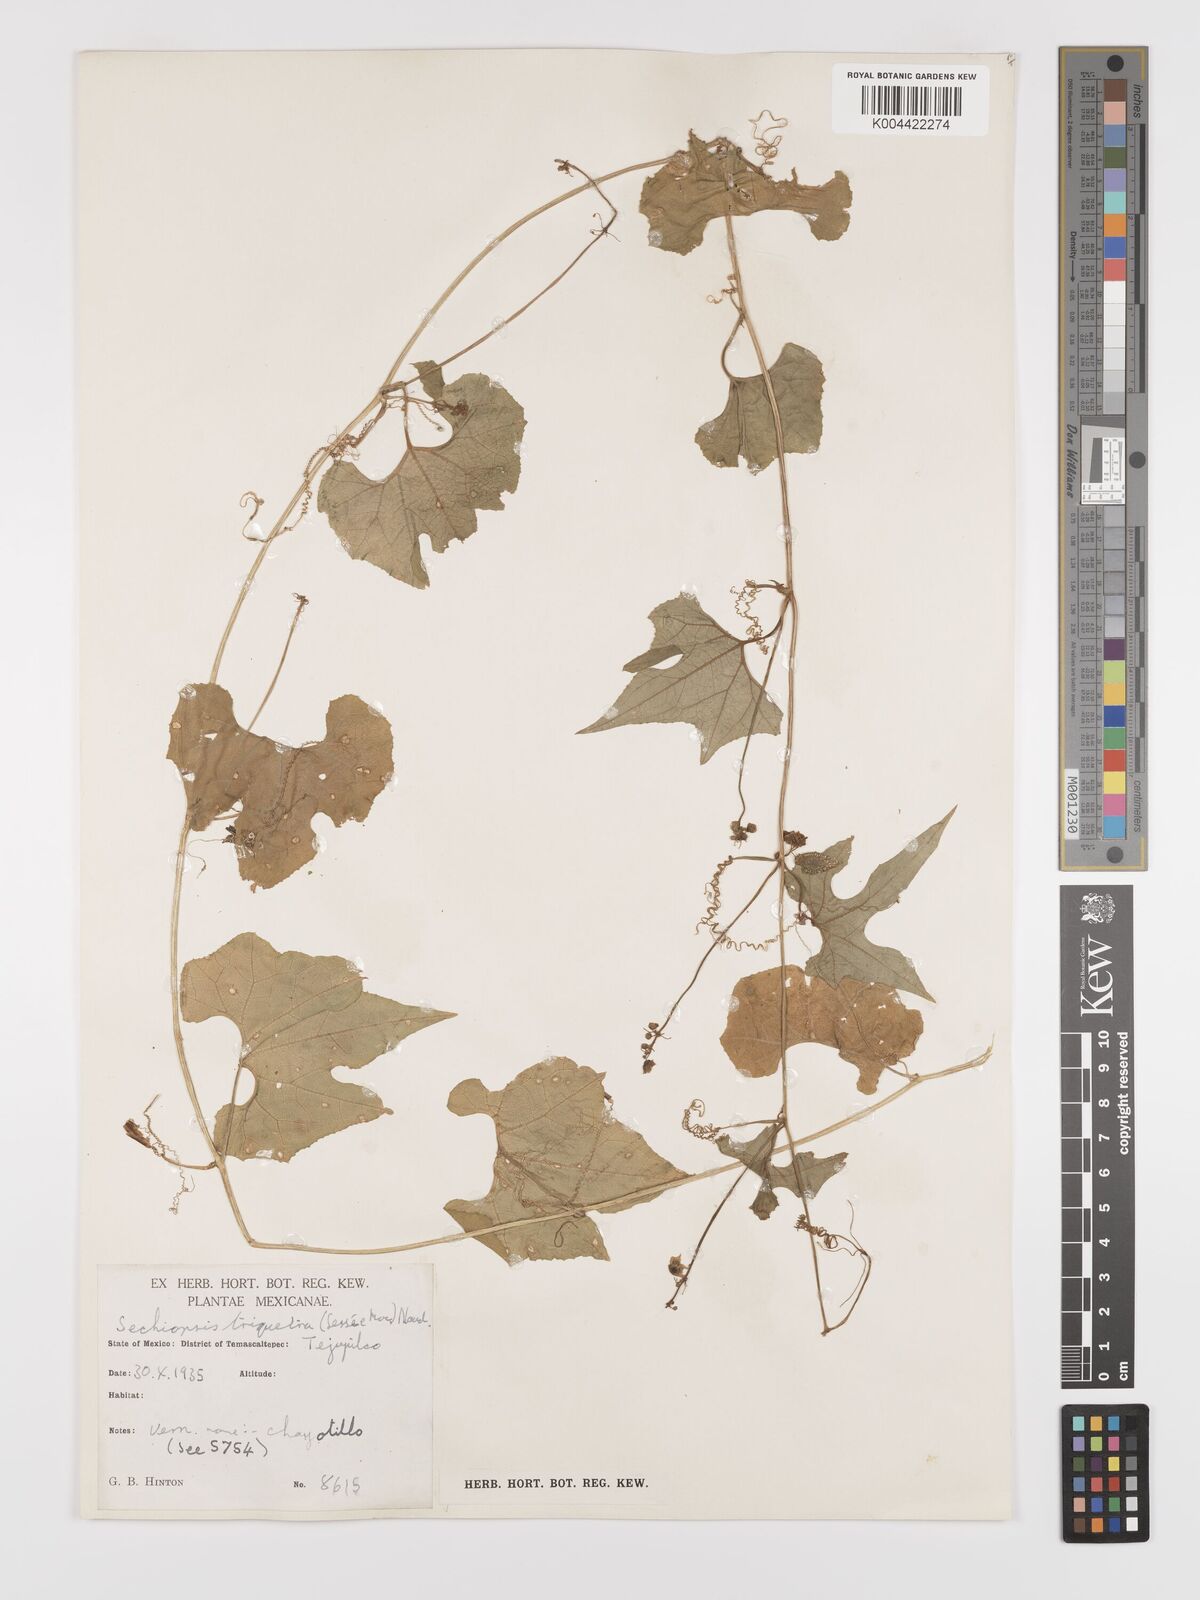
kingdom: Plantae
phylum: Tracheophyta
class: Magnoliopsida
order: Cucurbitales
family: Cucurbitaceae
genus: Sechiopsis
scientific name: Sechiopsis triqueter
